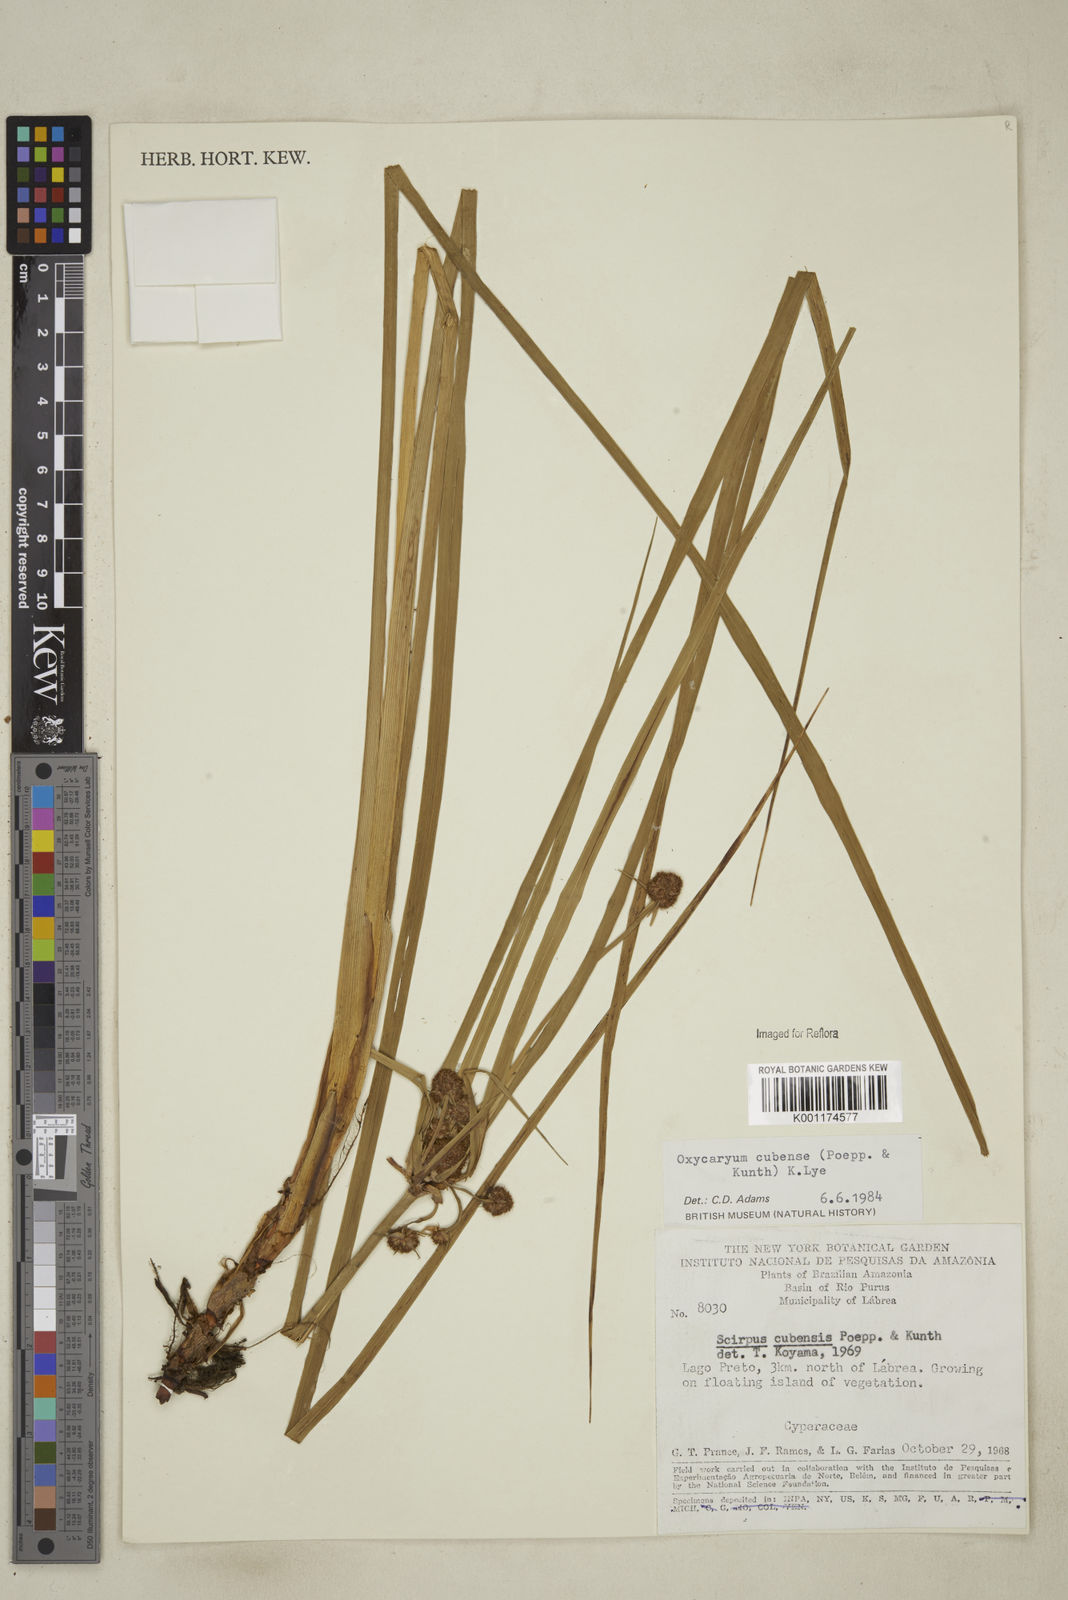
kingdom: Plantae
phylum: Tracheophyta
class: Liliopsida
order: Poales
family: Cyperaceae
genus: Cyperus
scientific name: Cyperus elegans
